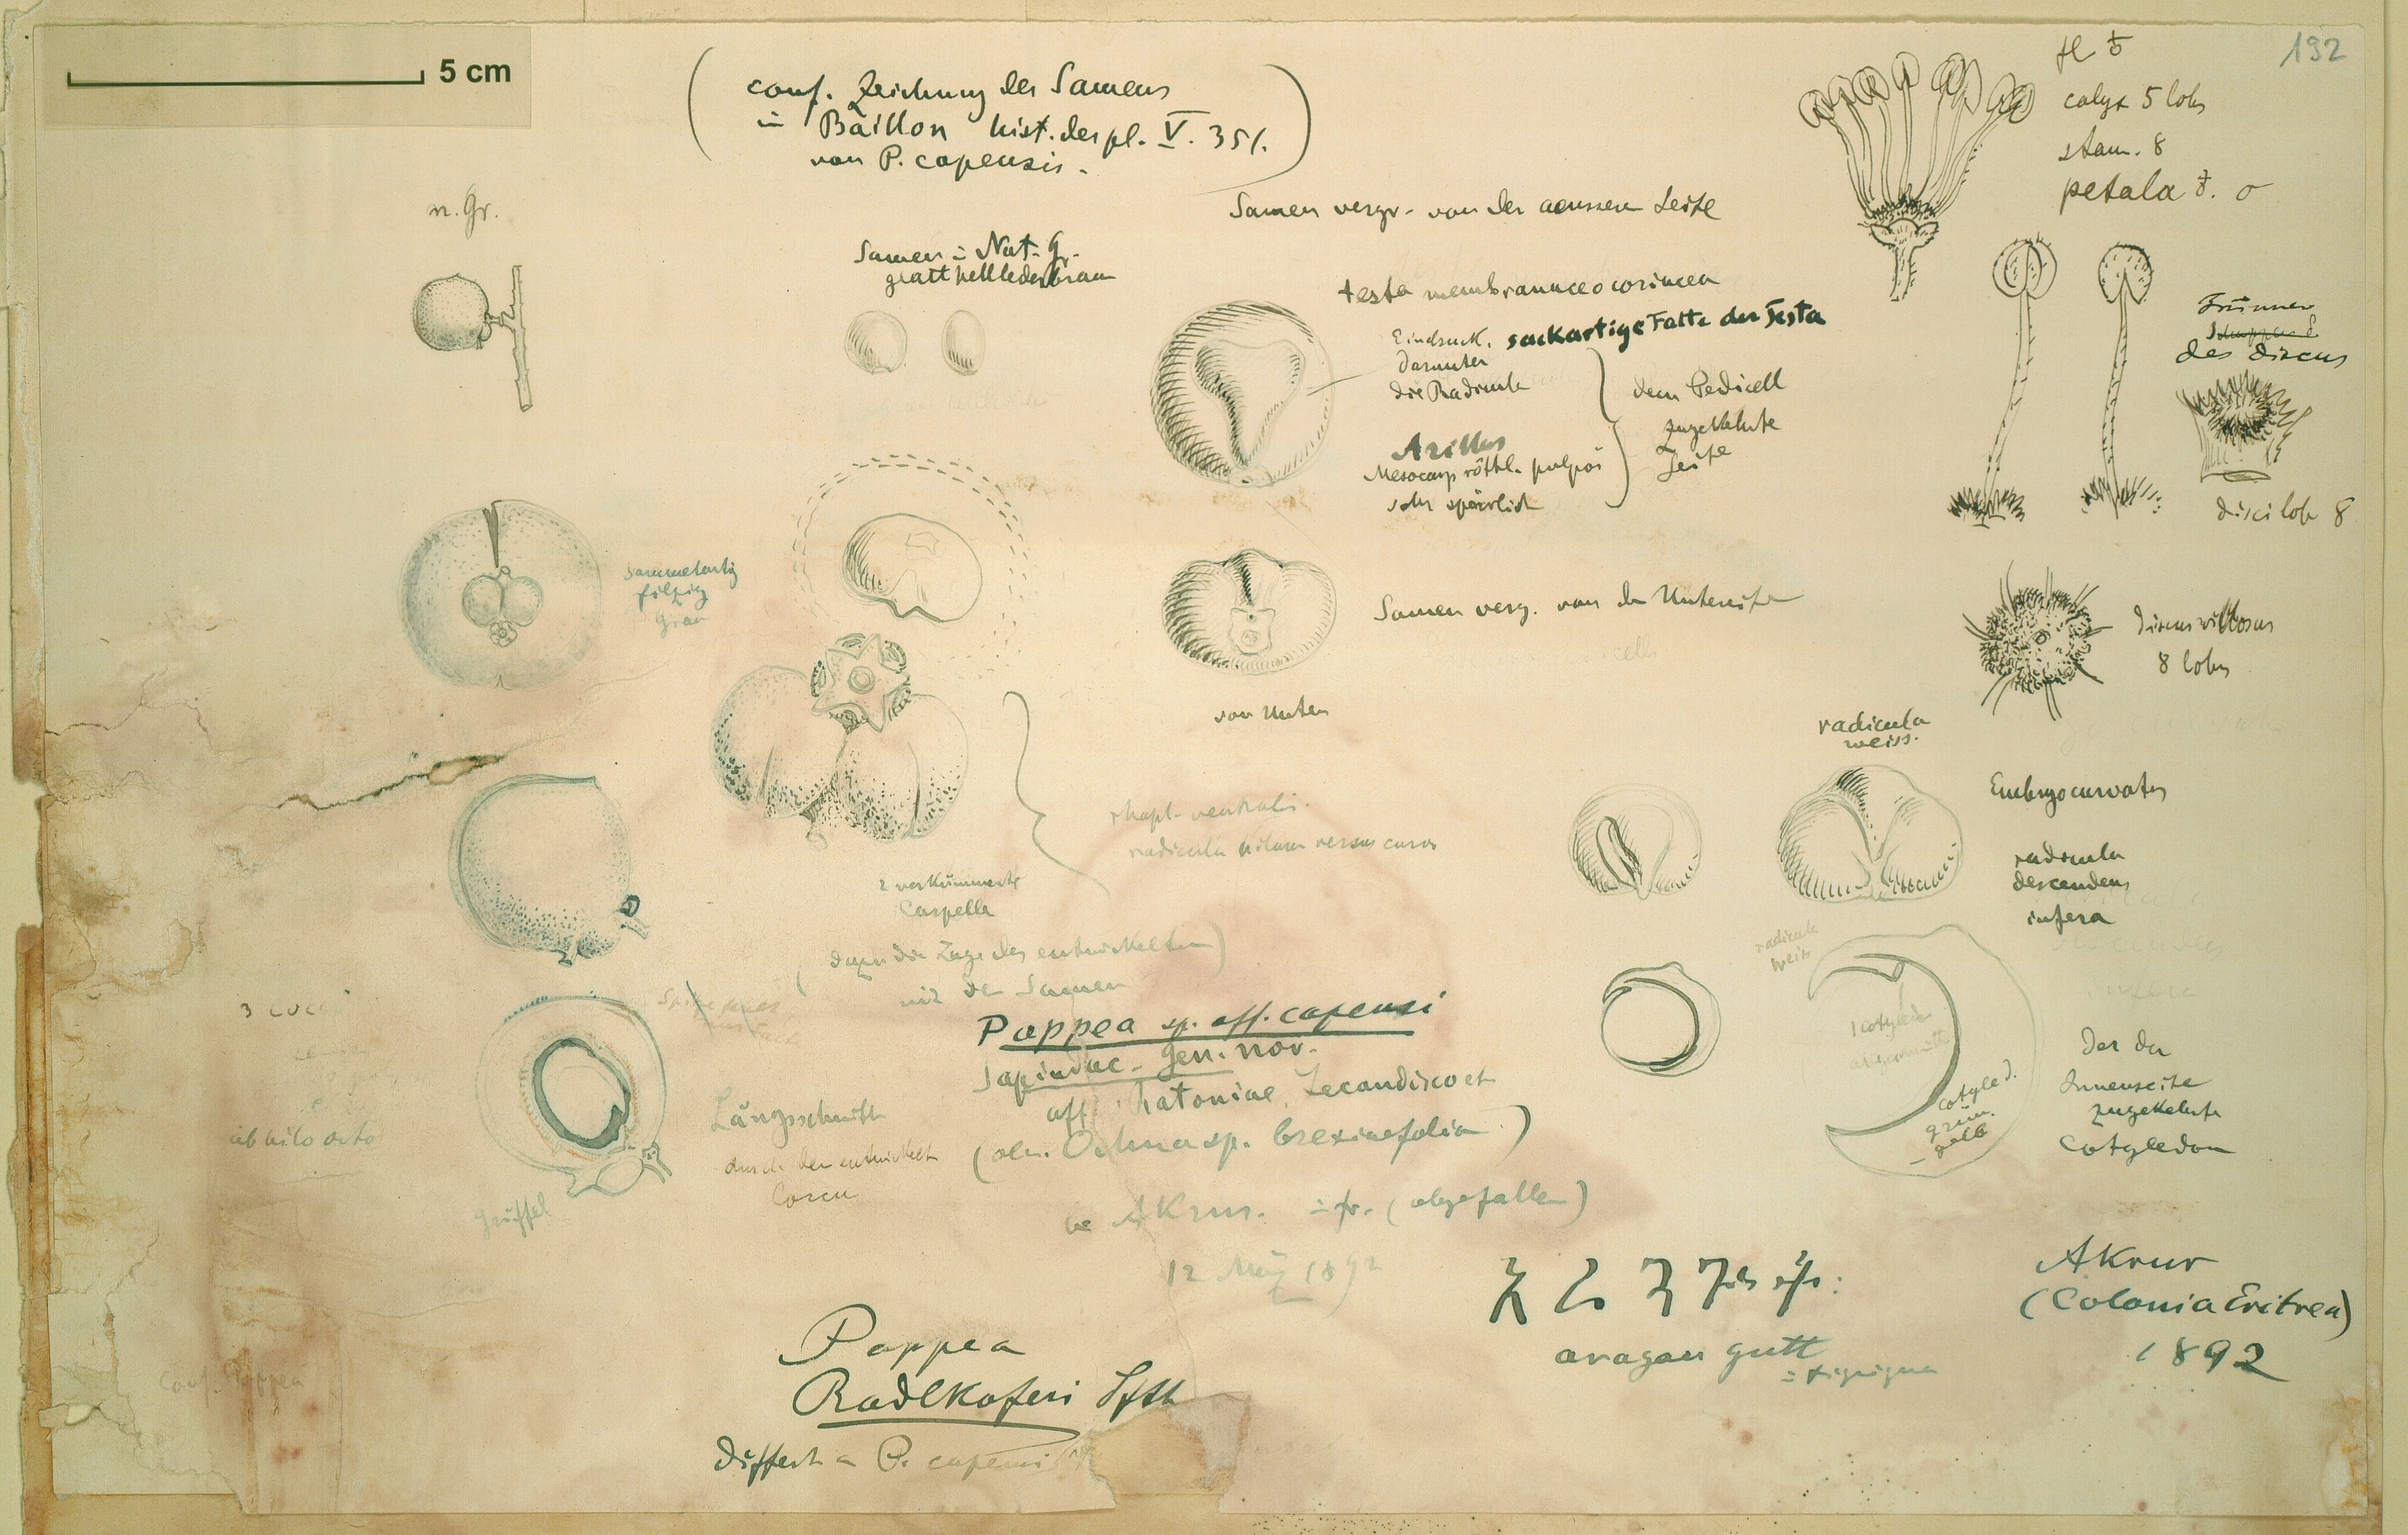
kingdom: Plantae
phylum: Tracheophyta
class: Magnoliopsida
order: Sapindales
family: Sapindaceae
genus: Pappea
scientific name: Pappea capensis
